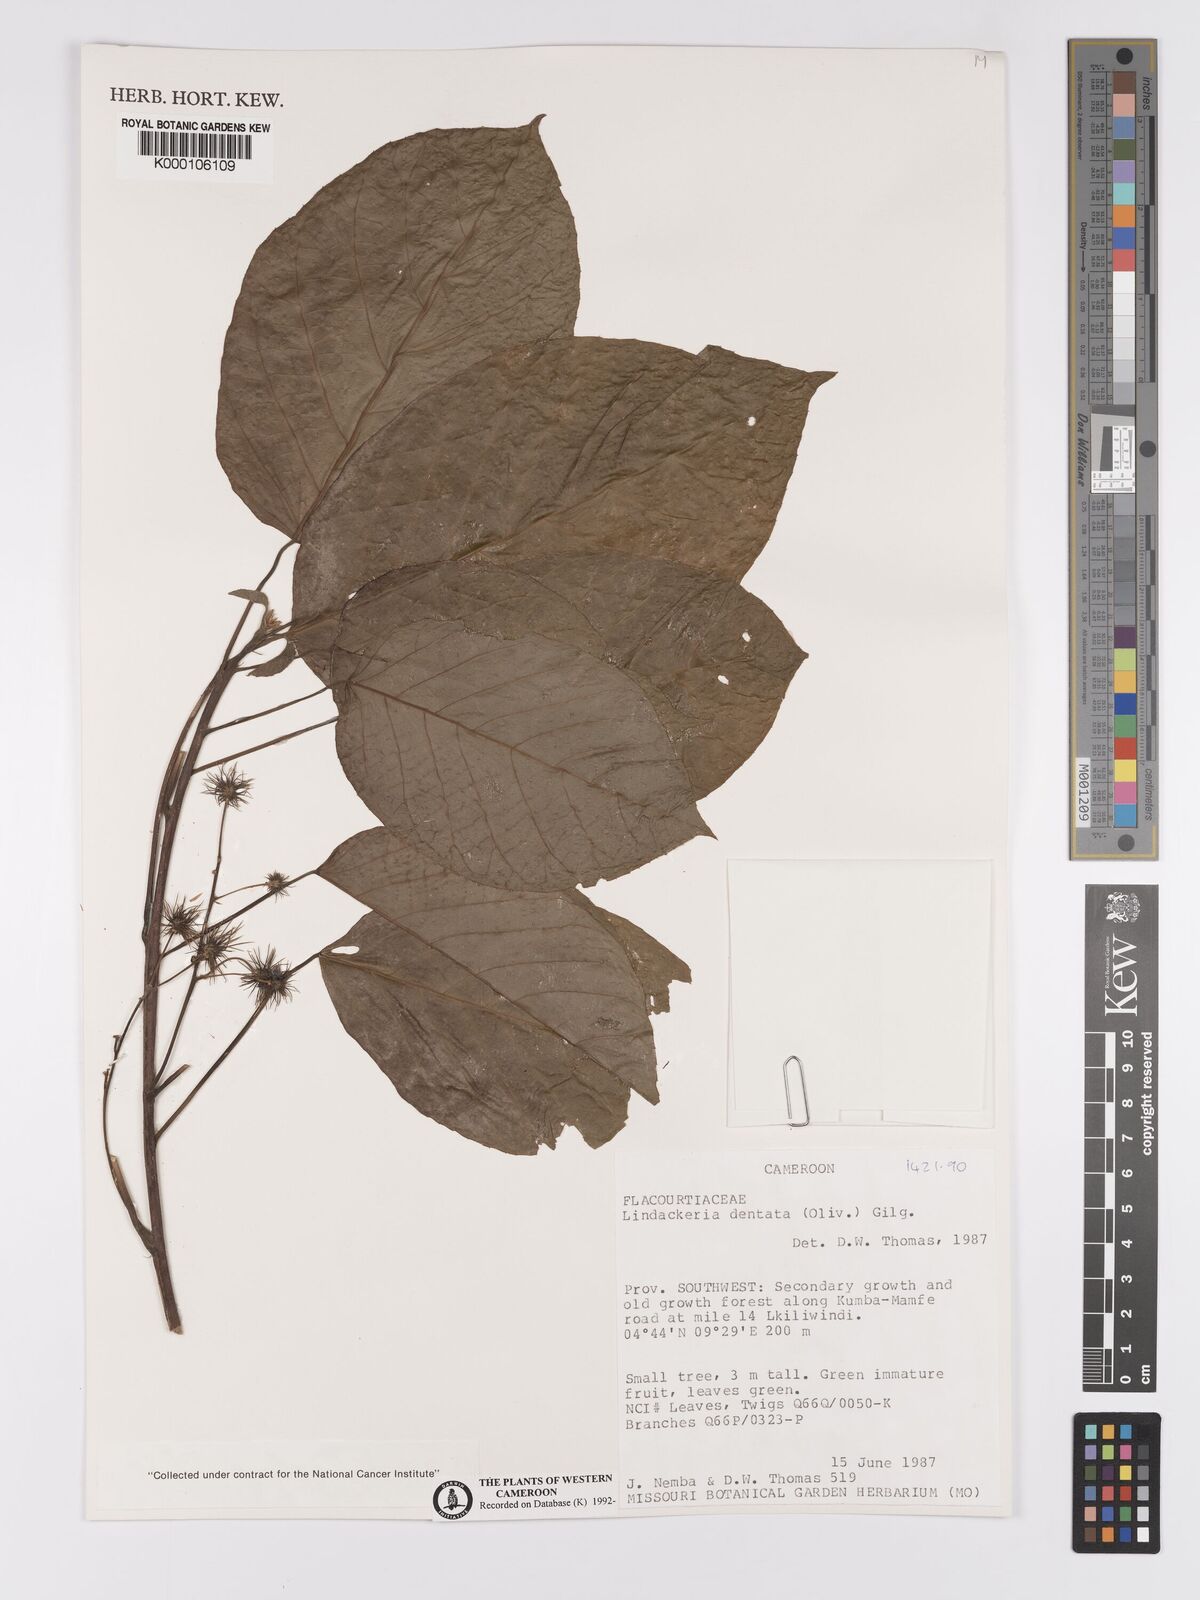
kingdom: Plantae
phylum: Tracheophyta
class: Magnoliopsida
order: Malpighiales
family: Achariaceae
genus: Lindackeria
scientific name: Lindackeria dentata
